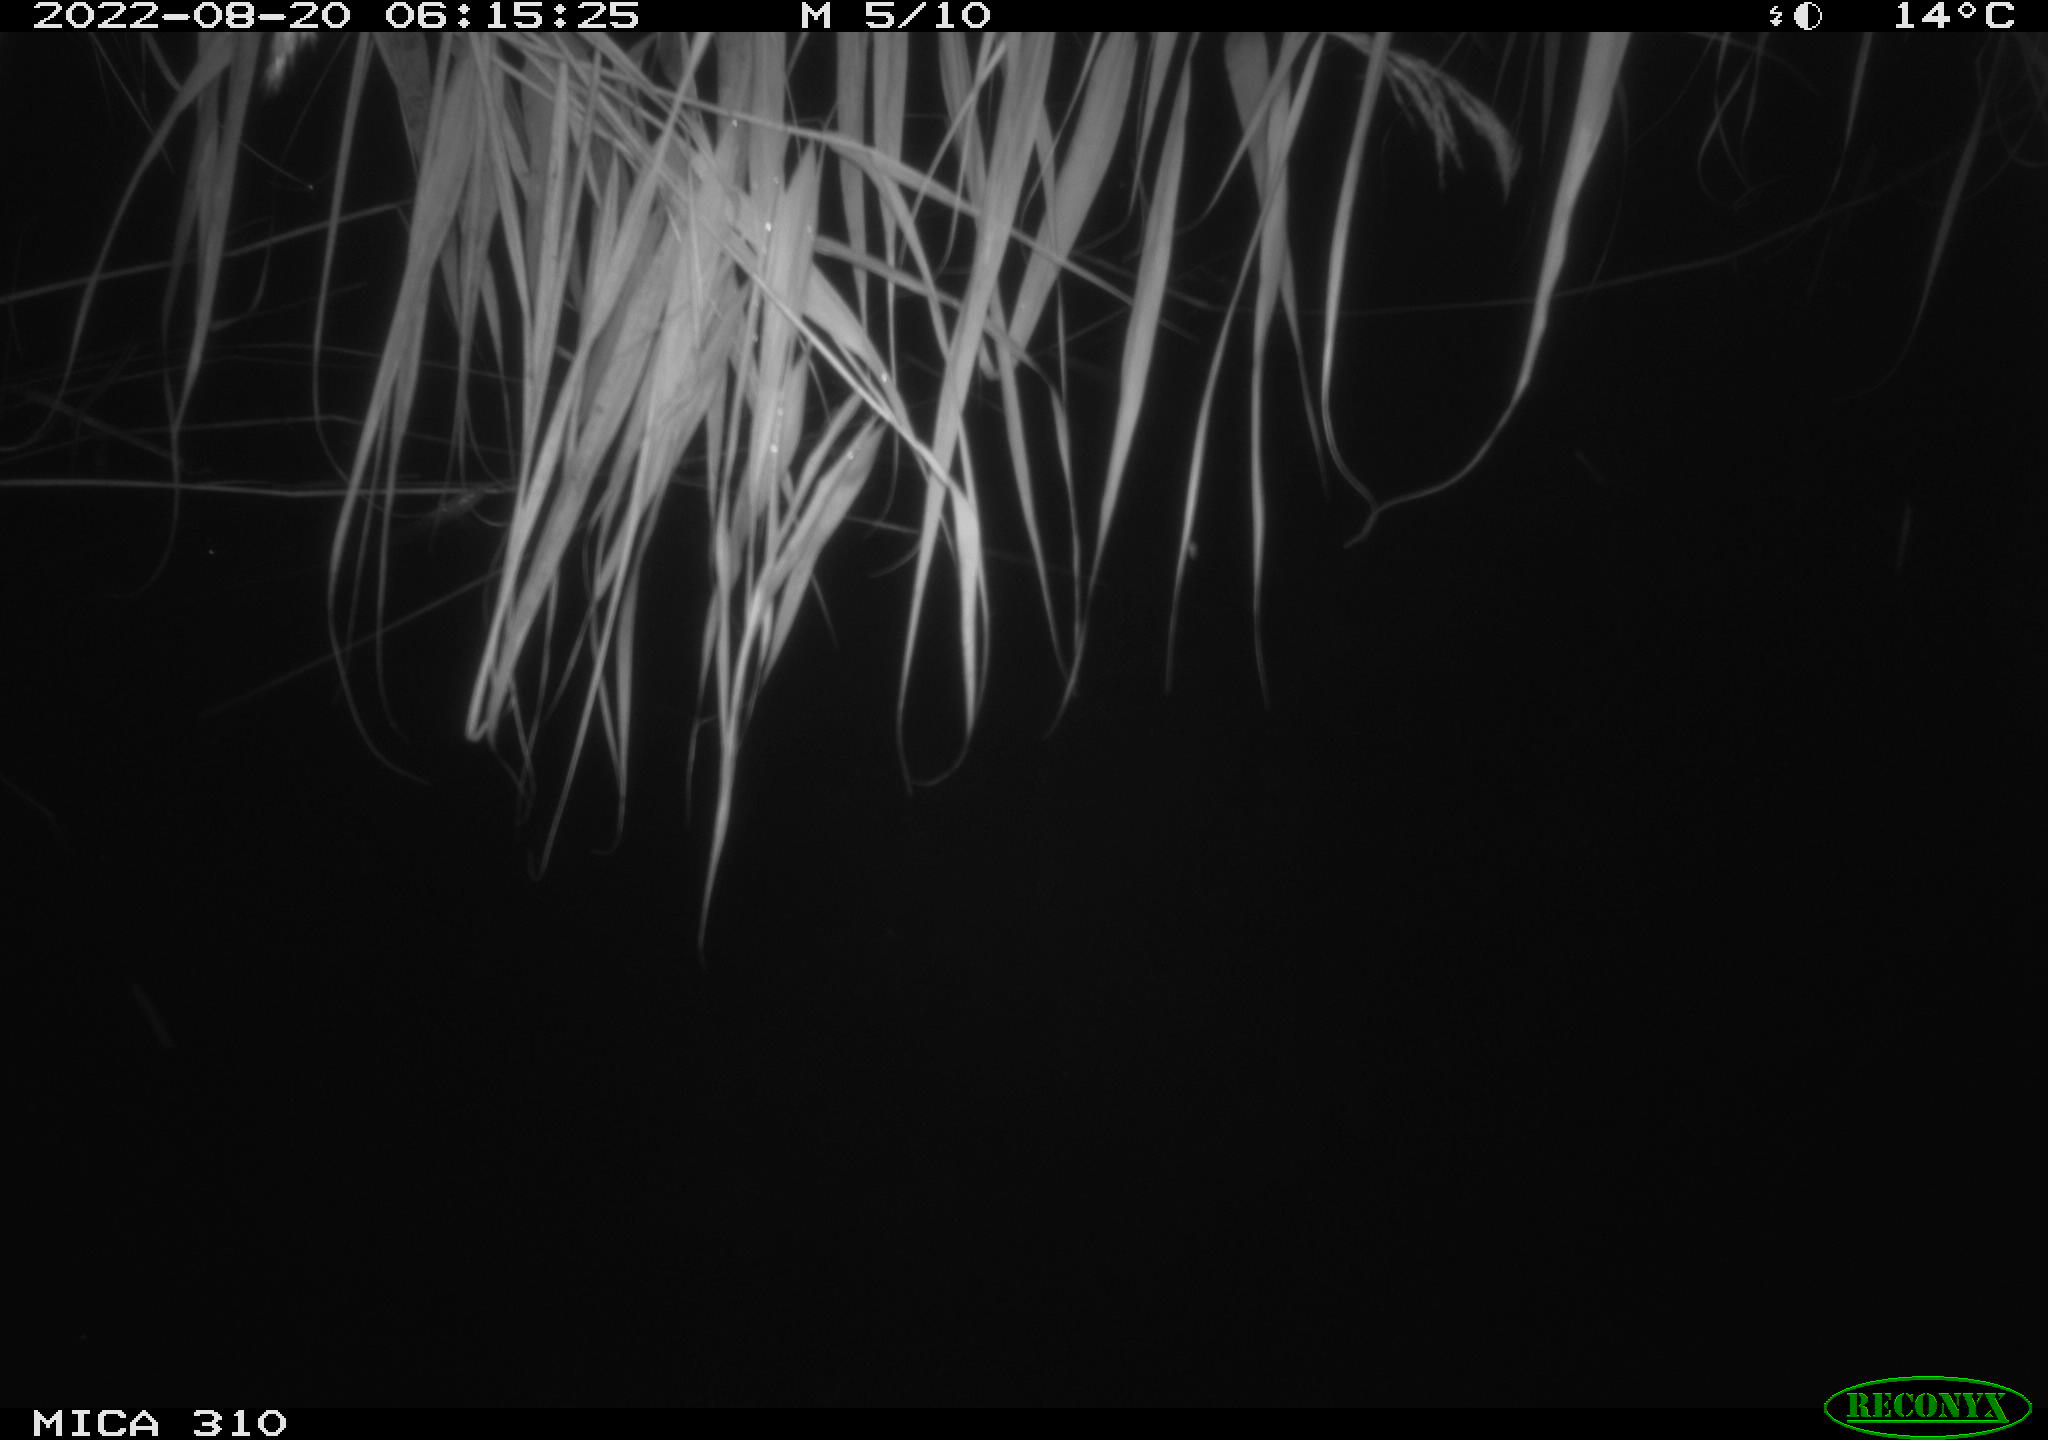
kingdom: Animalia
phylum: Chordata
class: Aves
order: Anseriformes
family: Anatidae
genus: Anas
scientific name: Anas platyrhynchos
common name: Mallard
